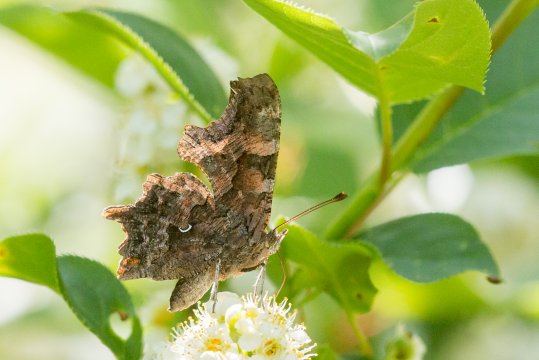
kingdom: Animalia
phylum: Arthropoda
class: Insecta
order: Lepidoptera
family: Nymphalidae
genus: Polygonia
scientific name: Polygonia faunus
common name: Green Comma
